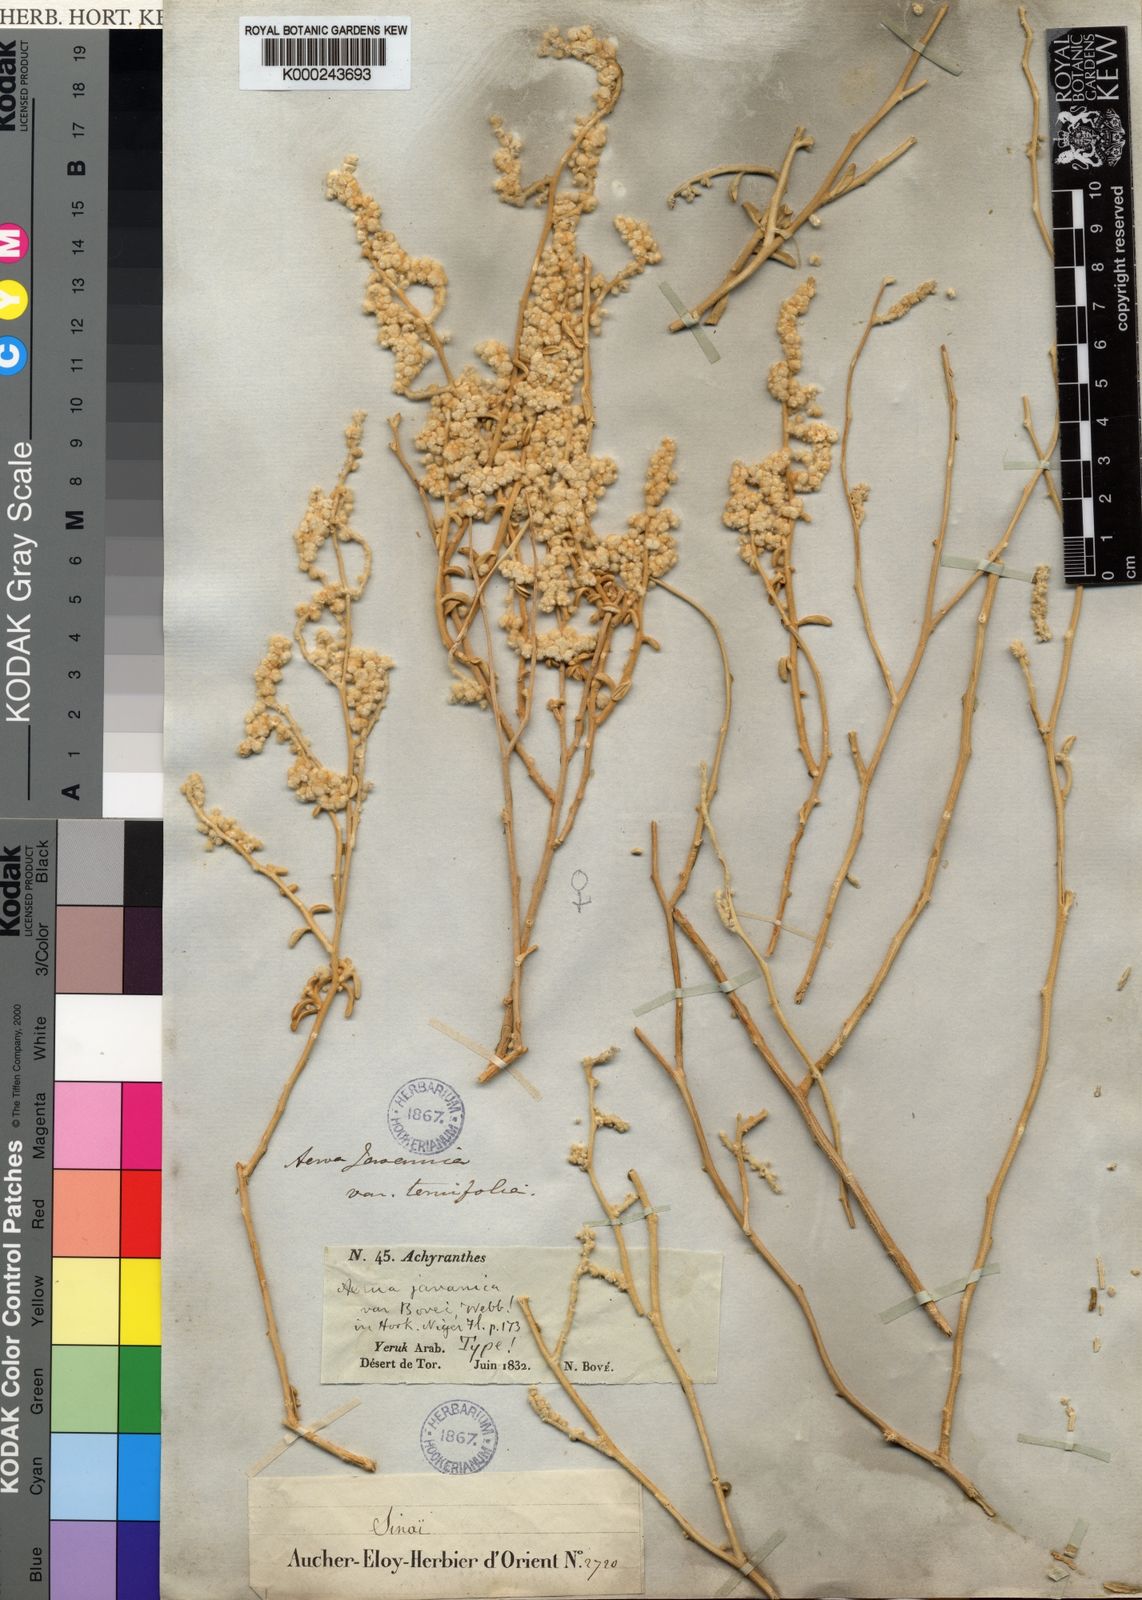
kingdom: Plantae
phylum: Tracheophyta
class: Magnoliopsida
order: Caryophyllales
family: Amaranthaceae
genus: Aerva
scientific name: Aerva javanica
